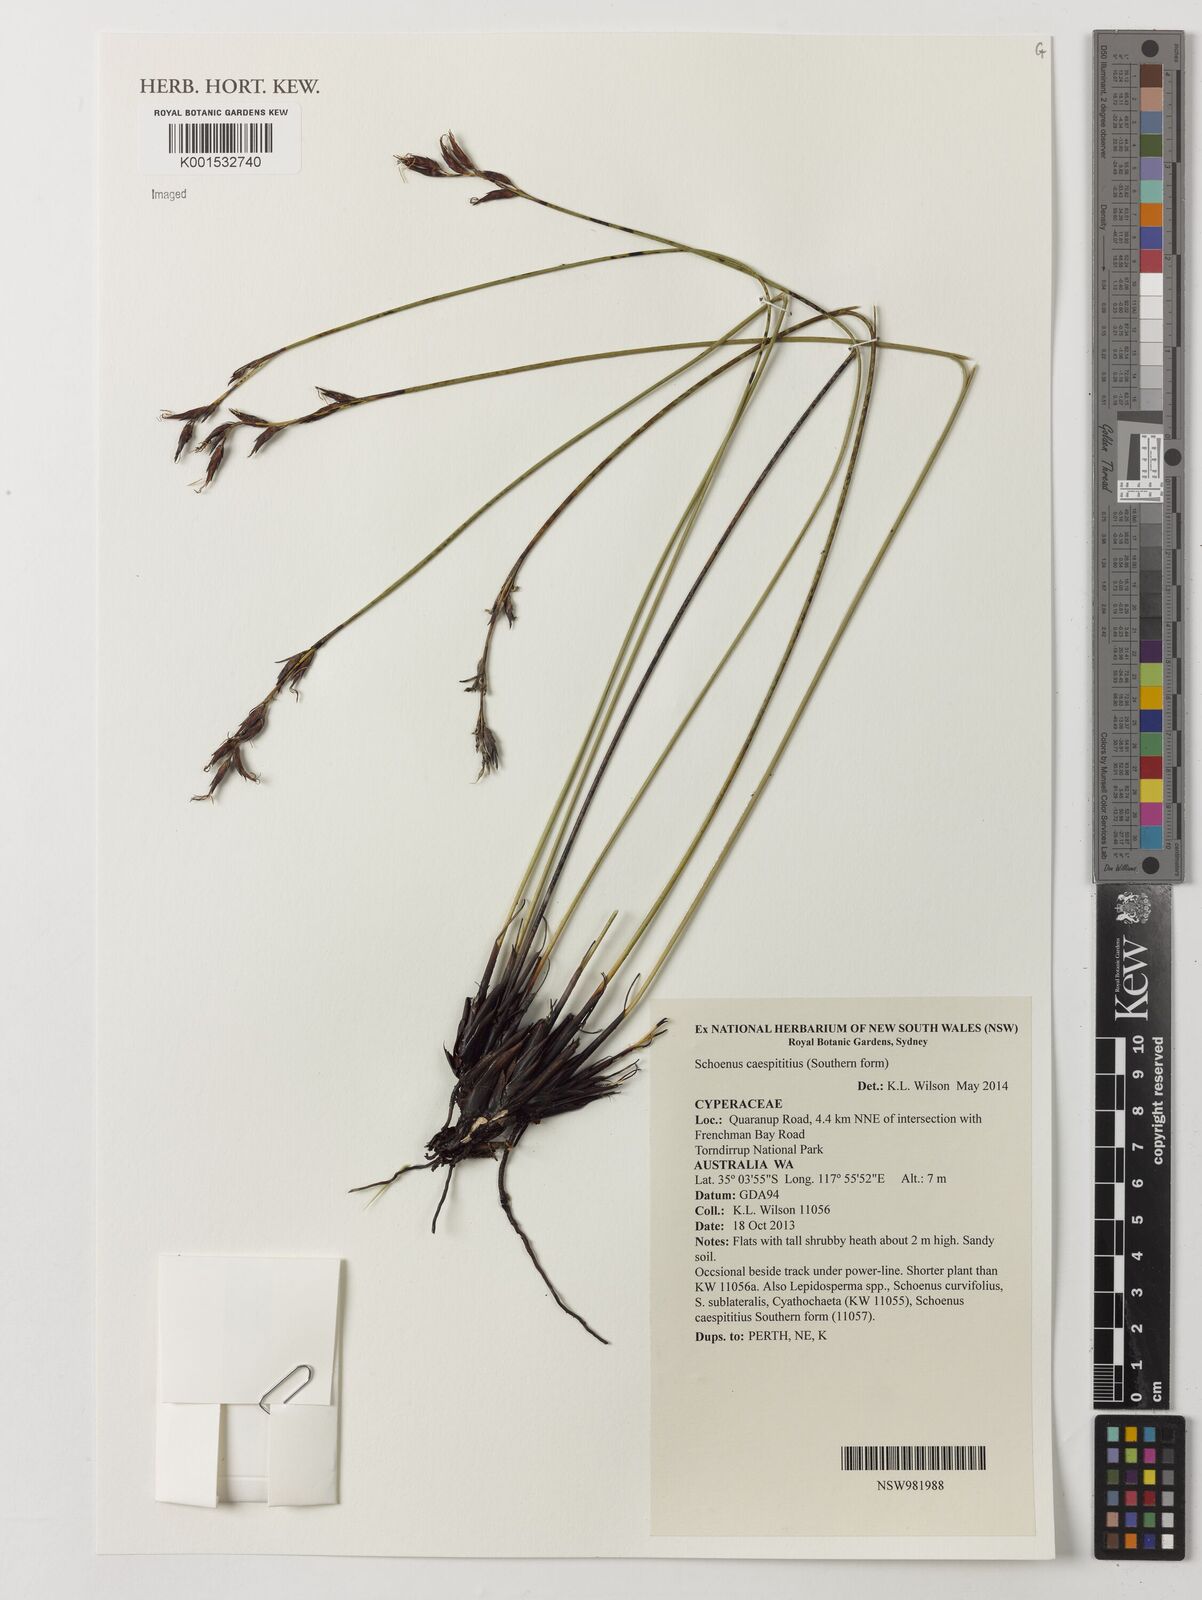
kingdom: Plantae
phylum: Tracheophyta
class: Liliopsida
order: Poales
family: Cyperaceae
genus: Schoenus
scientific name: Schoenus caespititius
